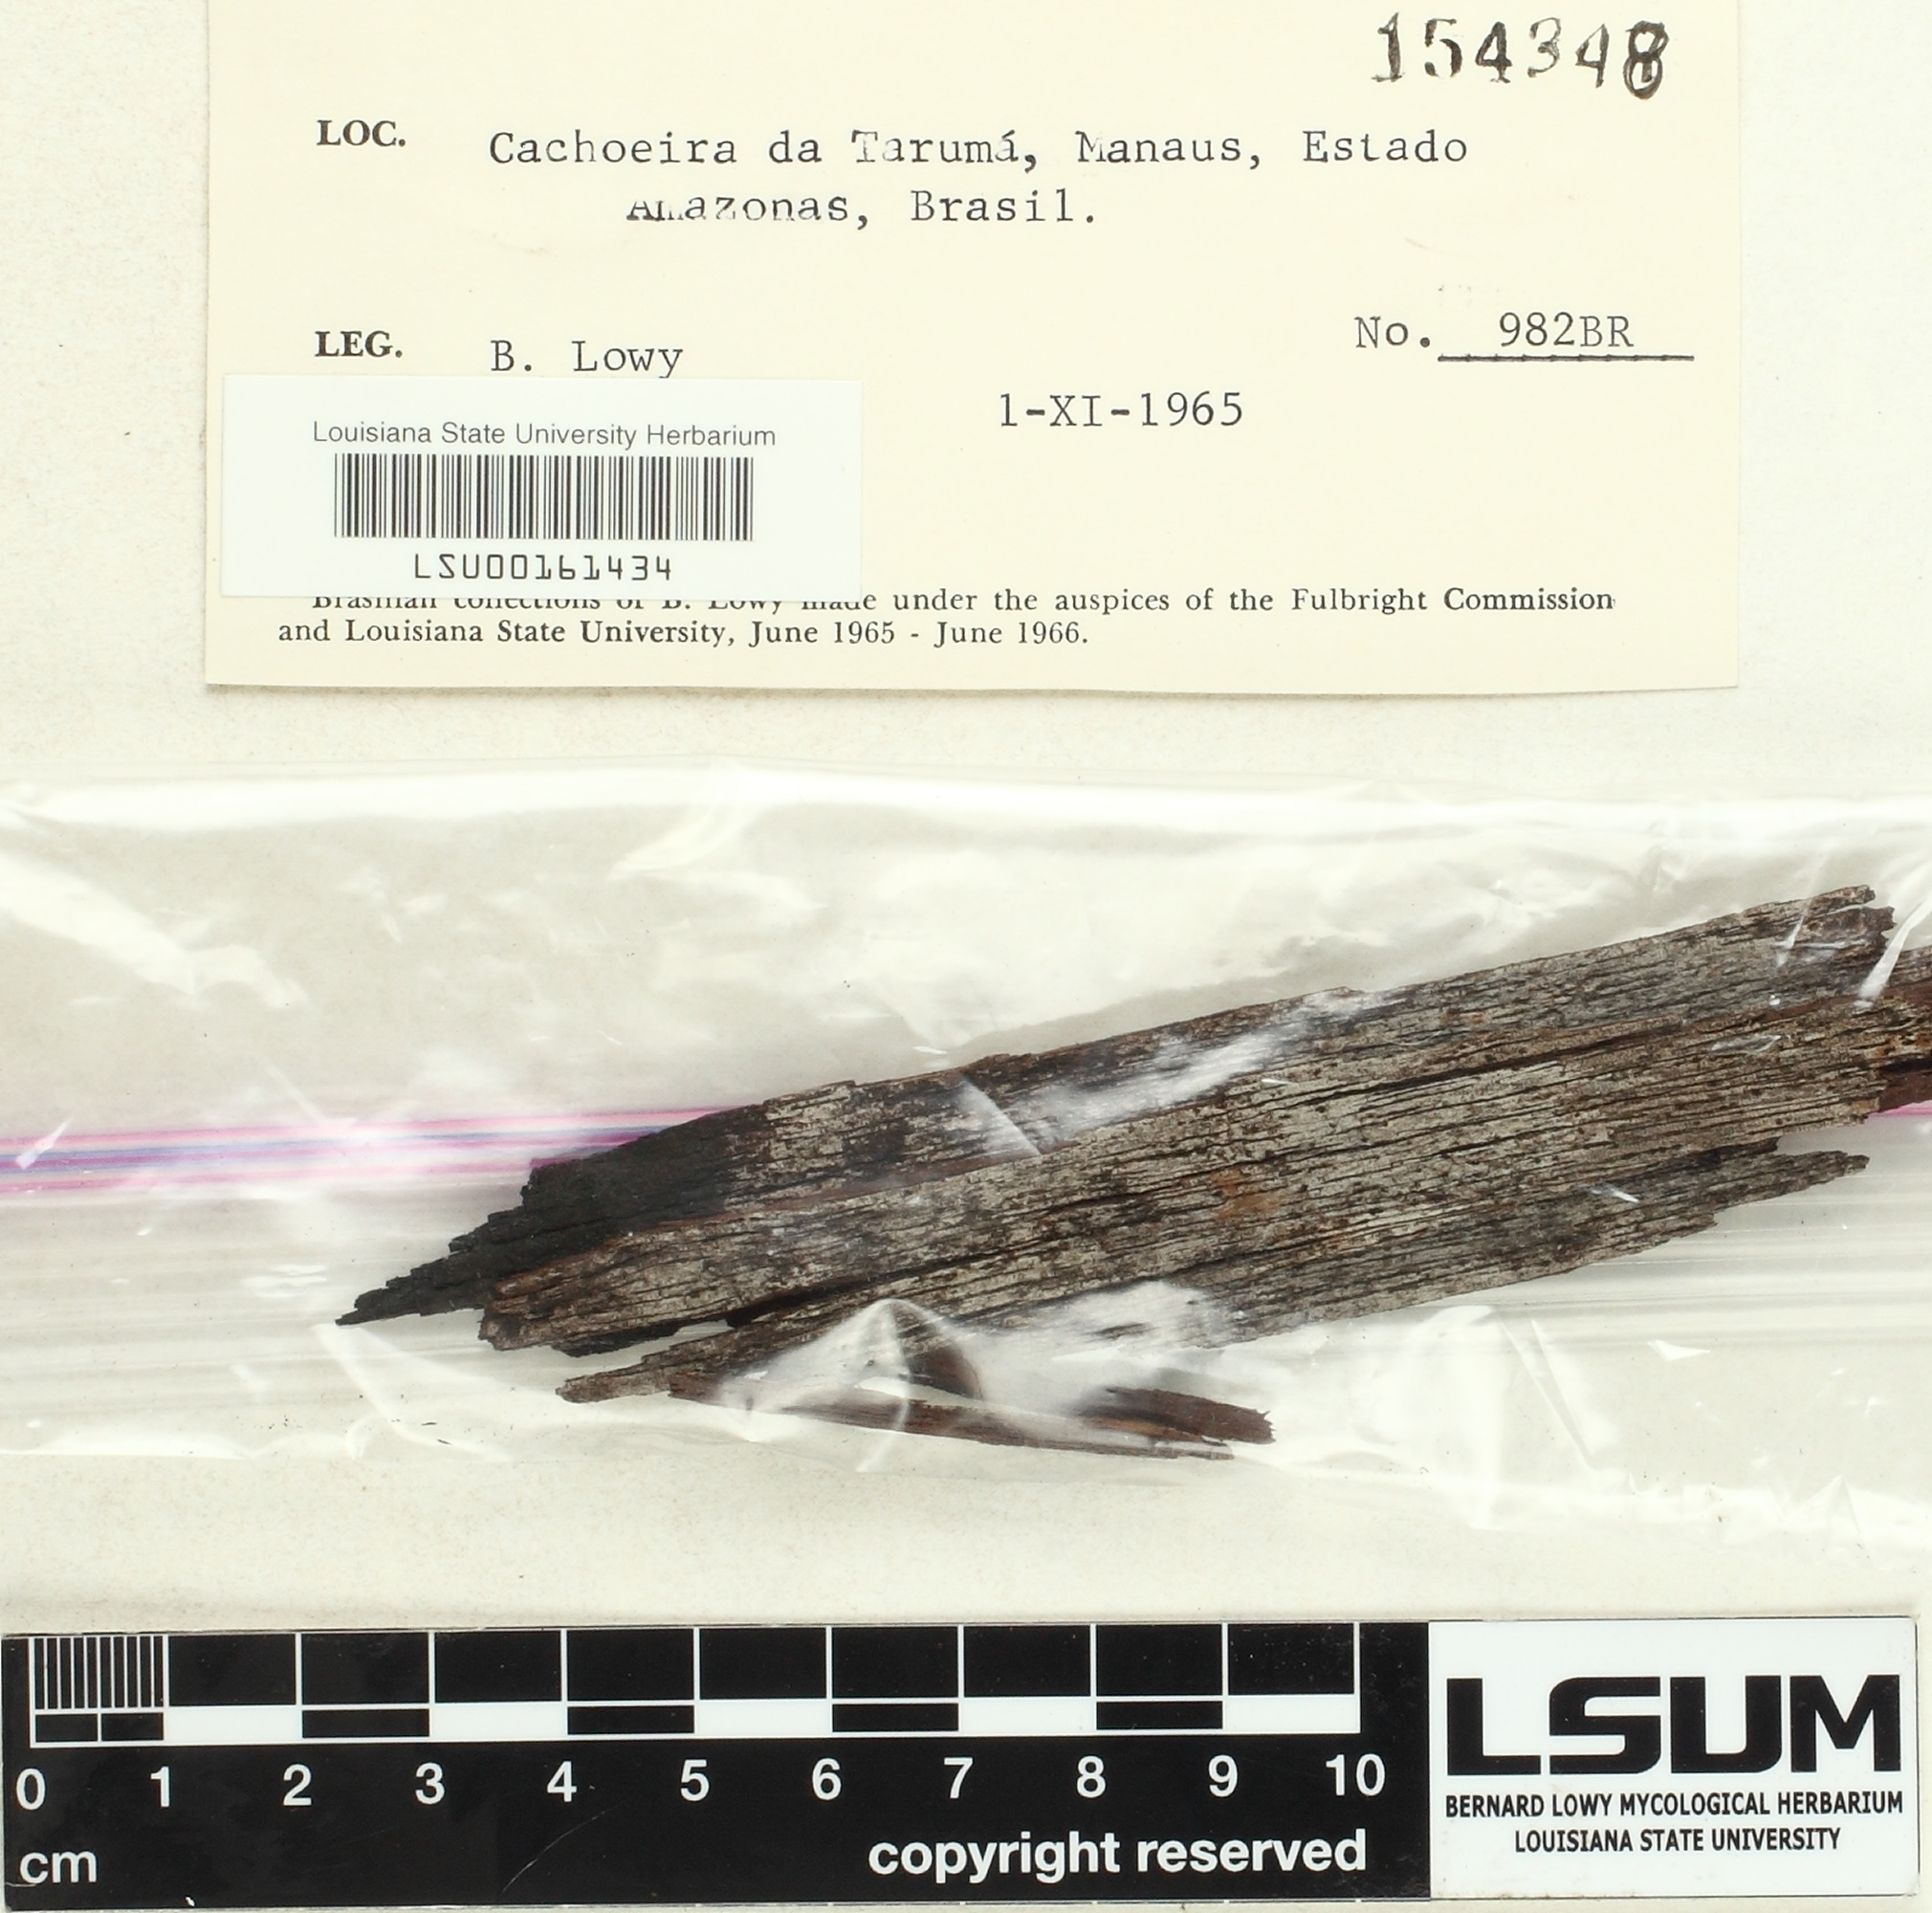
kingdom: Fungi
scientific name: Fungi
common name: Fungi
